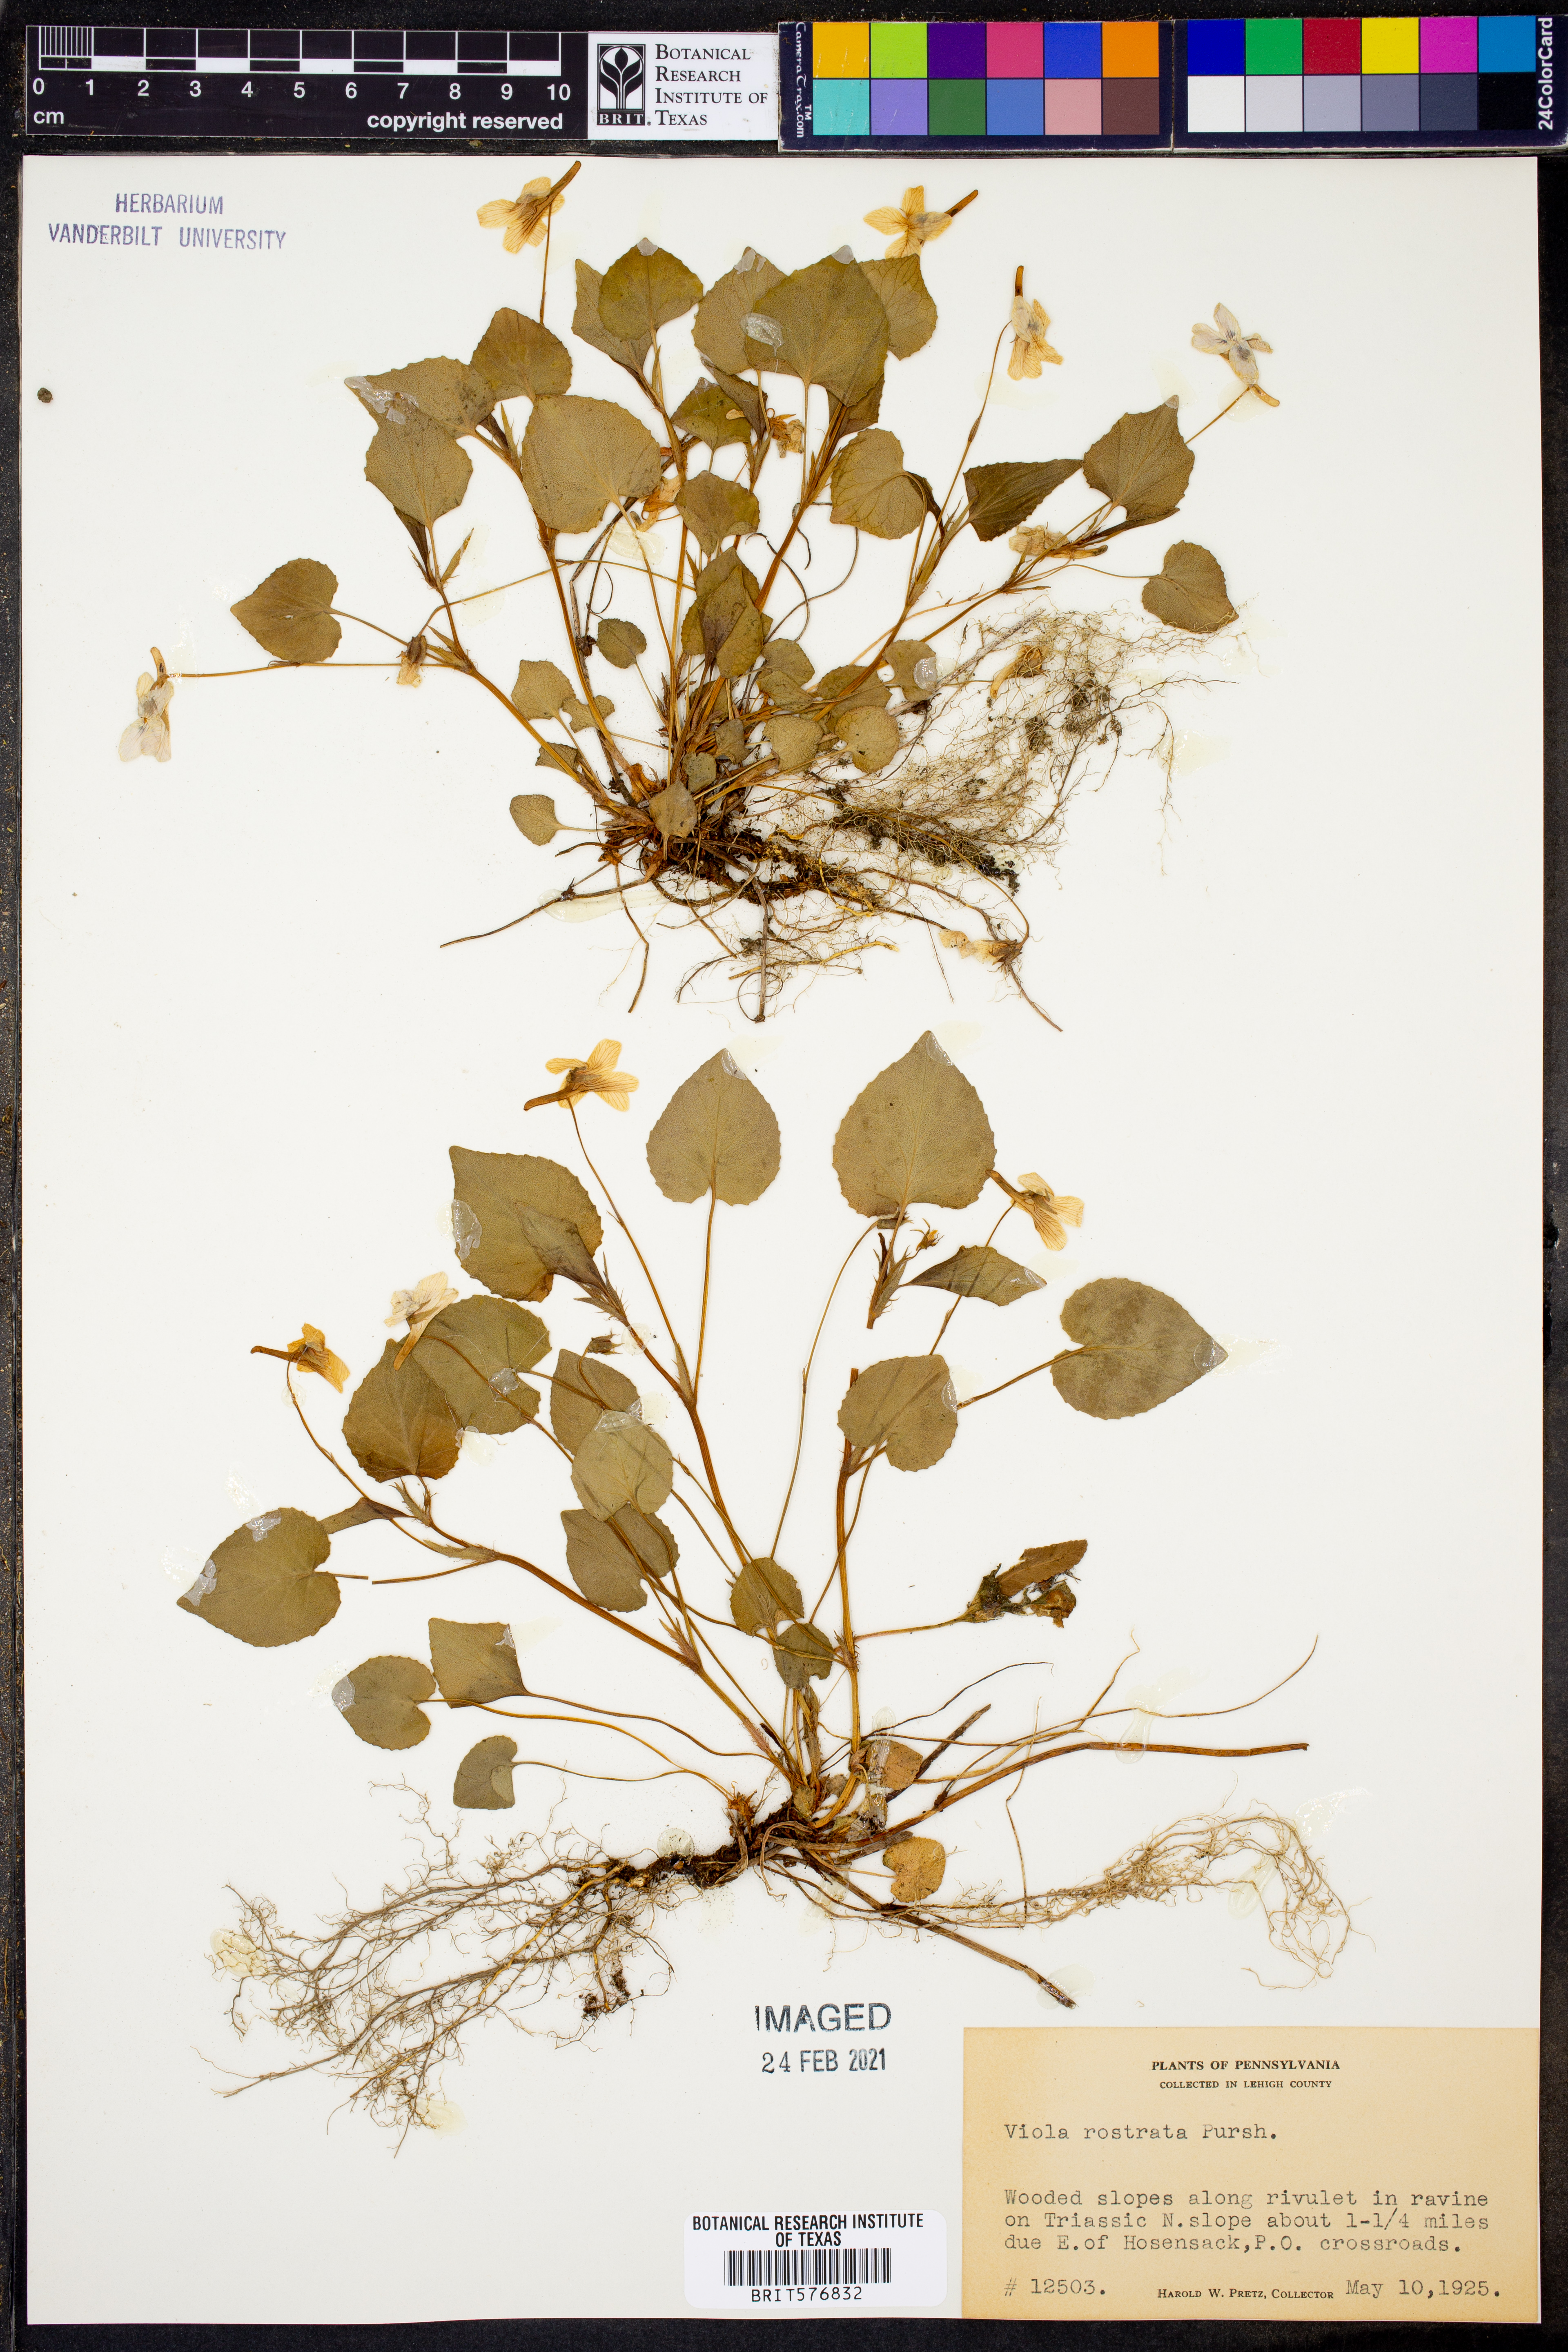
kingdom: Plantae
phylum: Tracheophyta
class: Magnoliopsida
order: Malpighiales
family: Violaceae
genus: Viola
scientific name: Viola rostrata
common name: Long-spur violet
